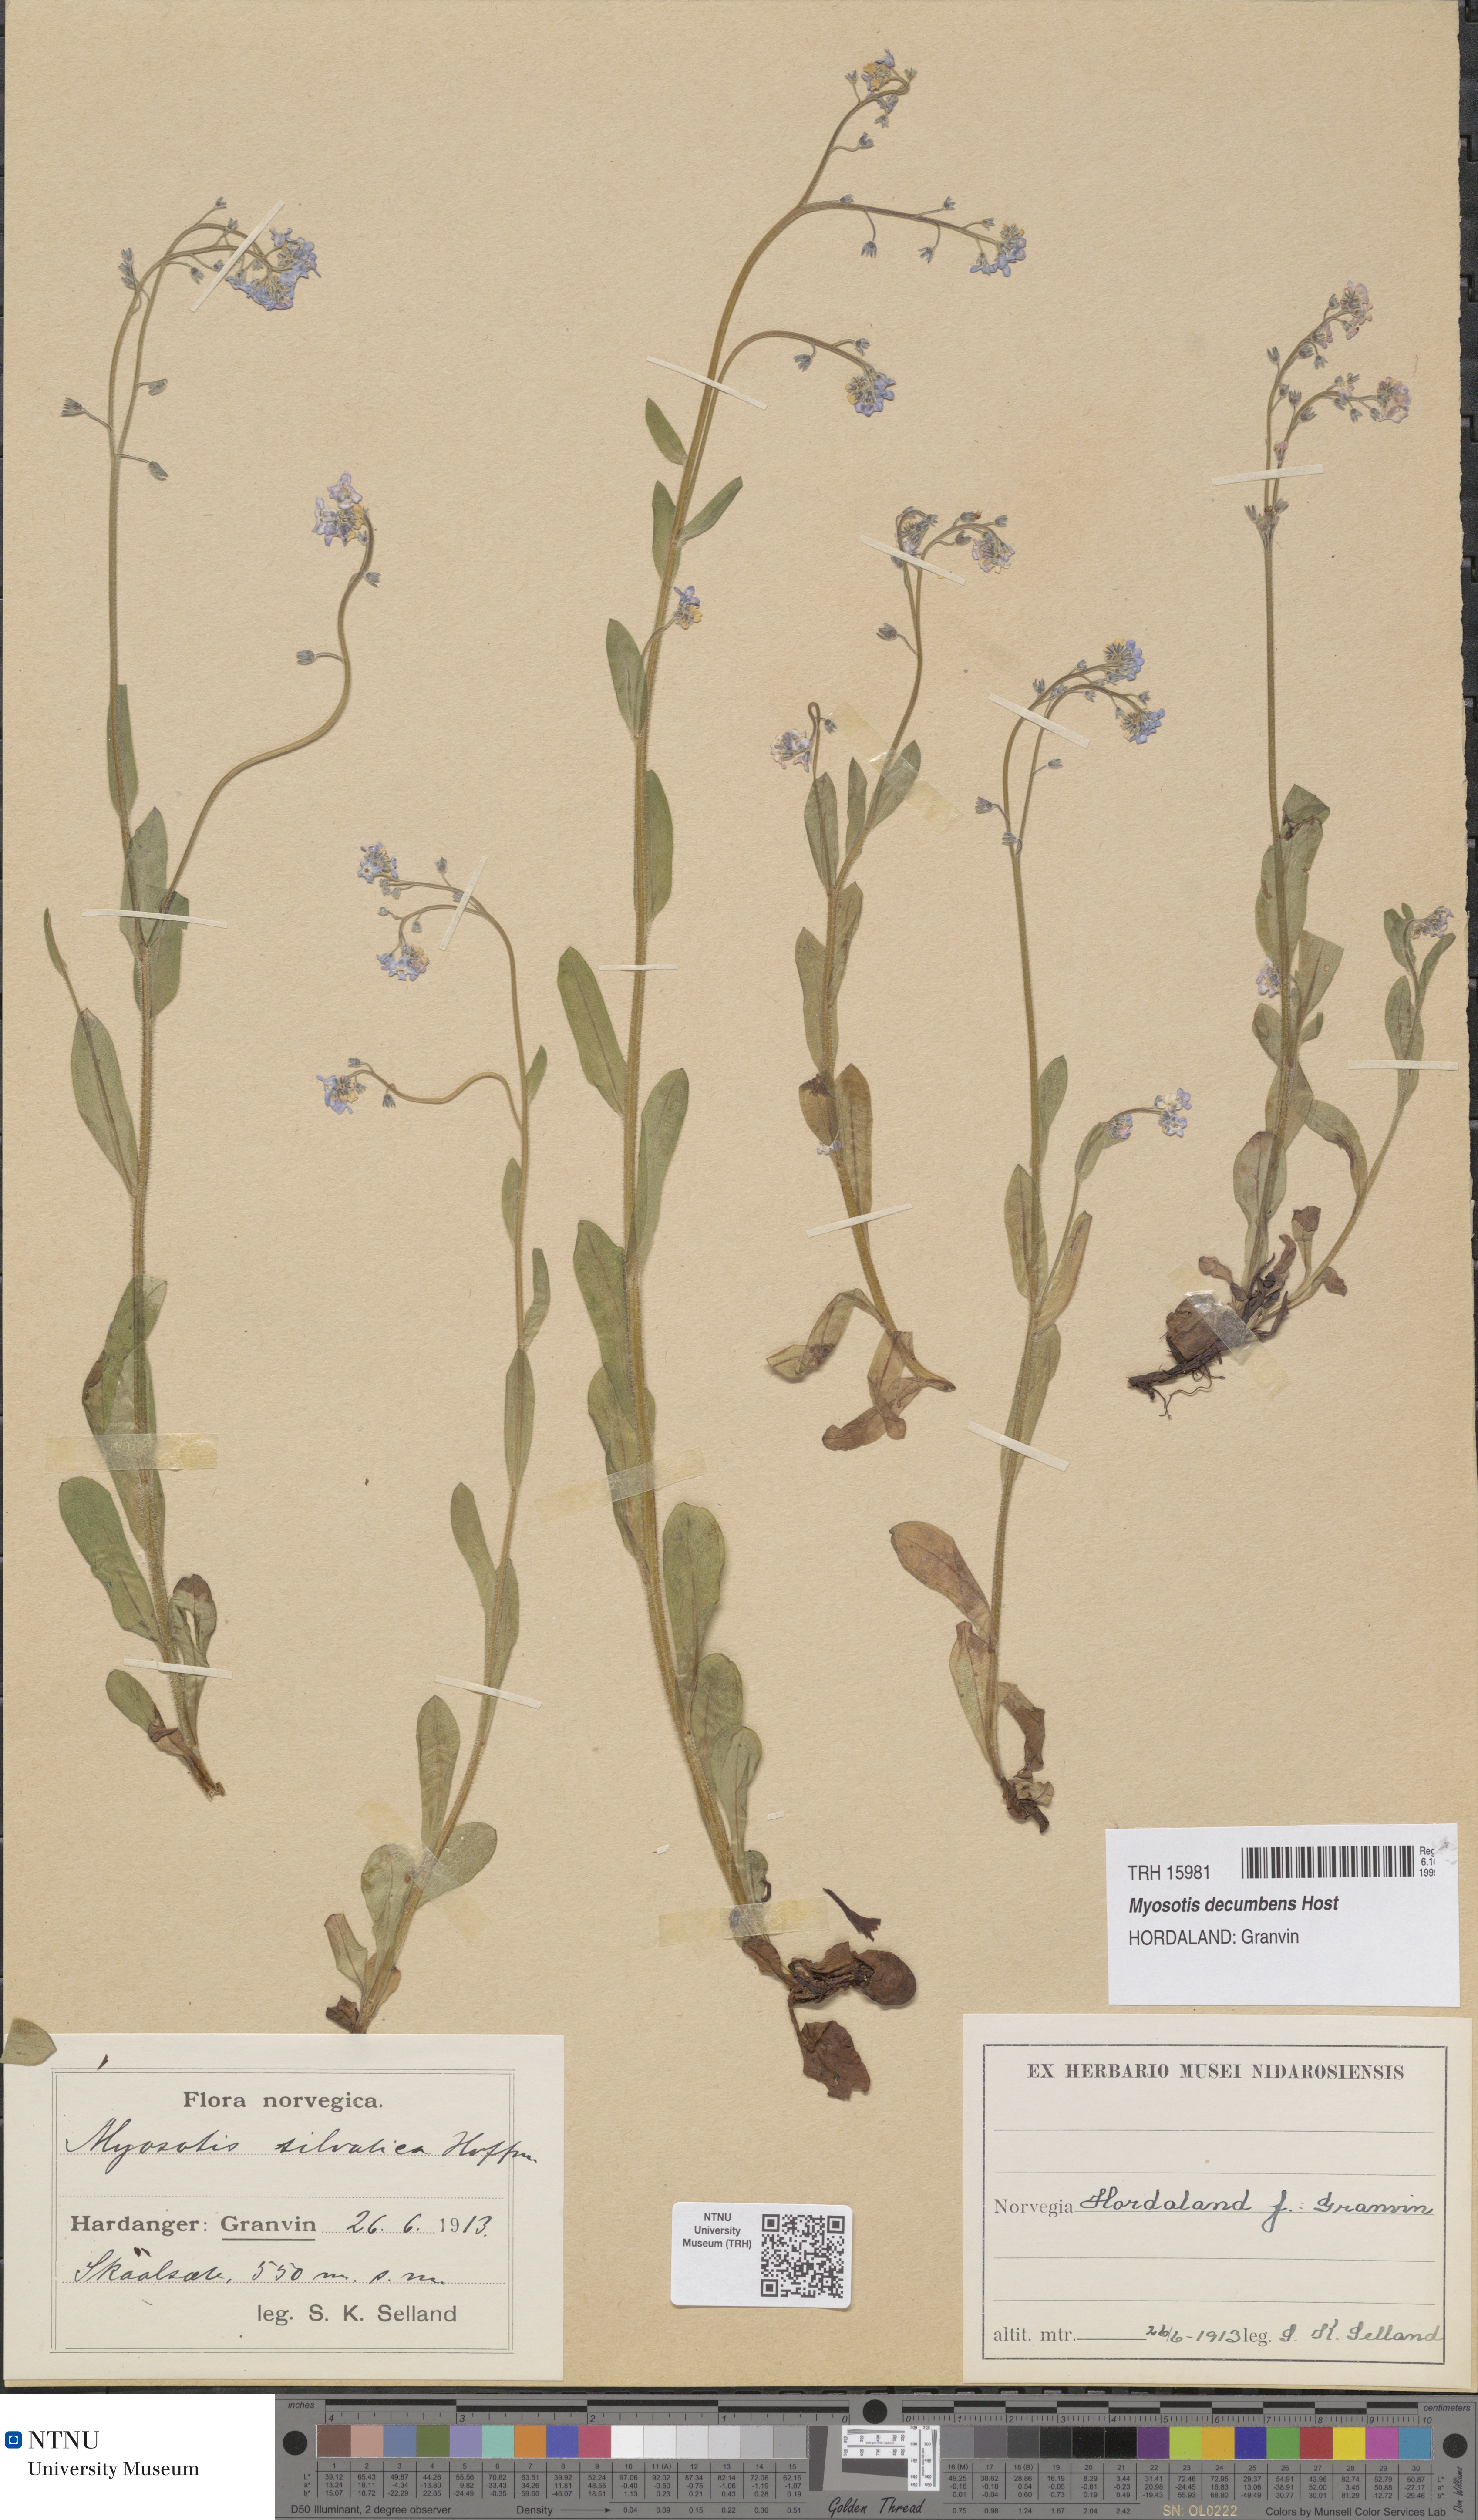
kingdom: Plantae
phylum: Tracheophyta
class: Magnoliopsida
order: Boraginales
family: Boraginaceae
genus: Myosotis
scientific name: Myosotis decumbens
